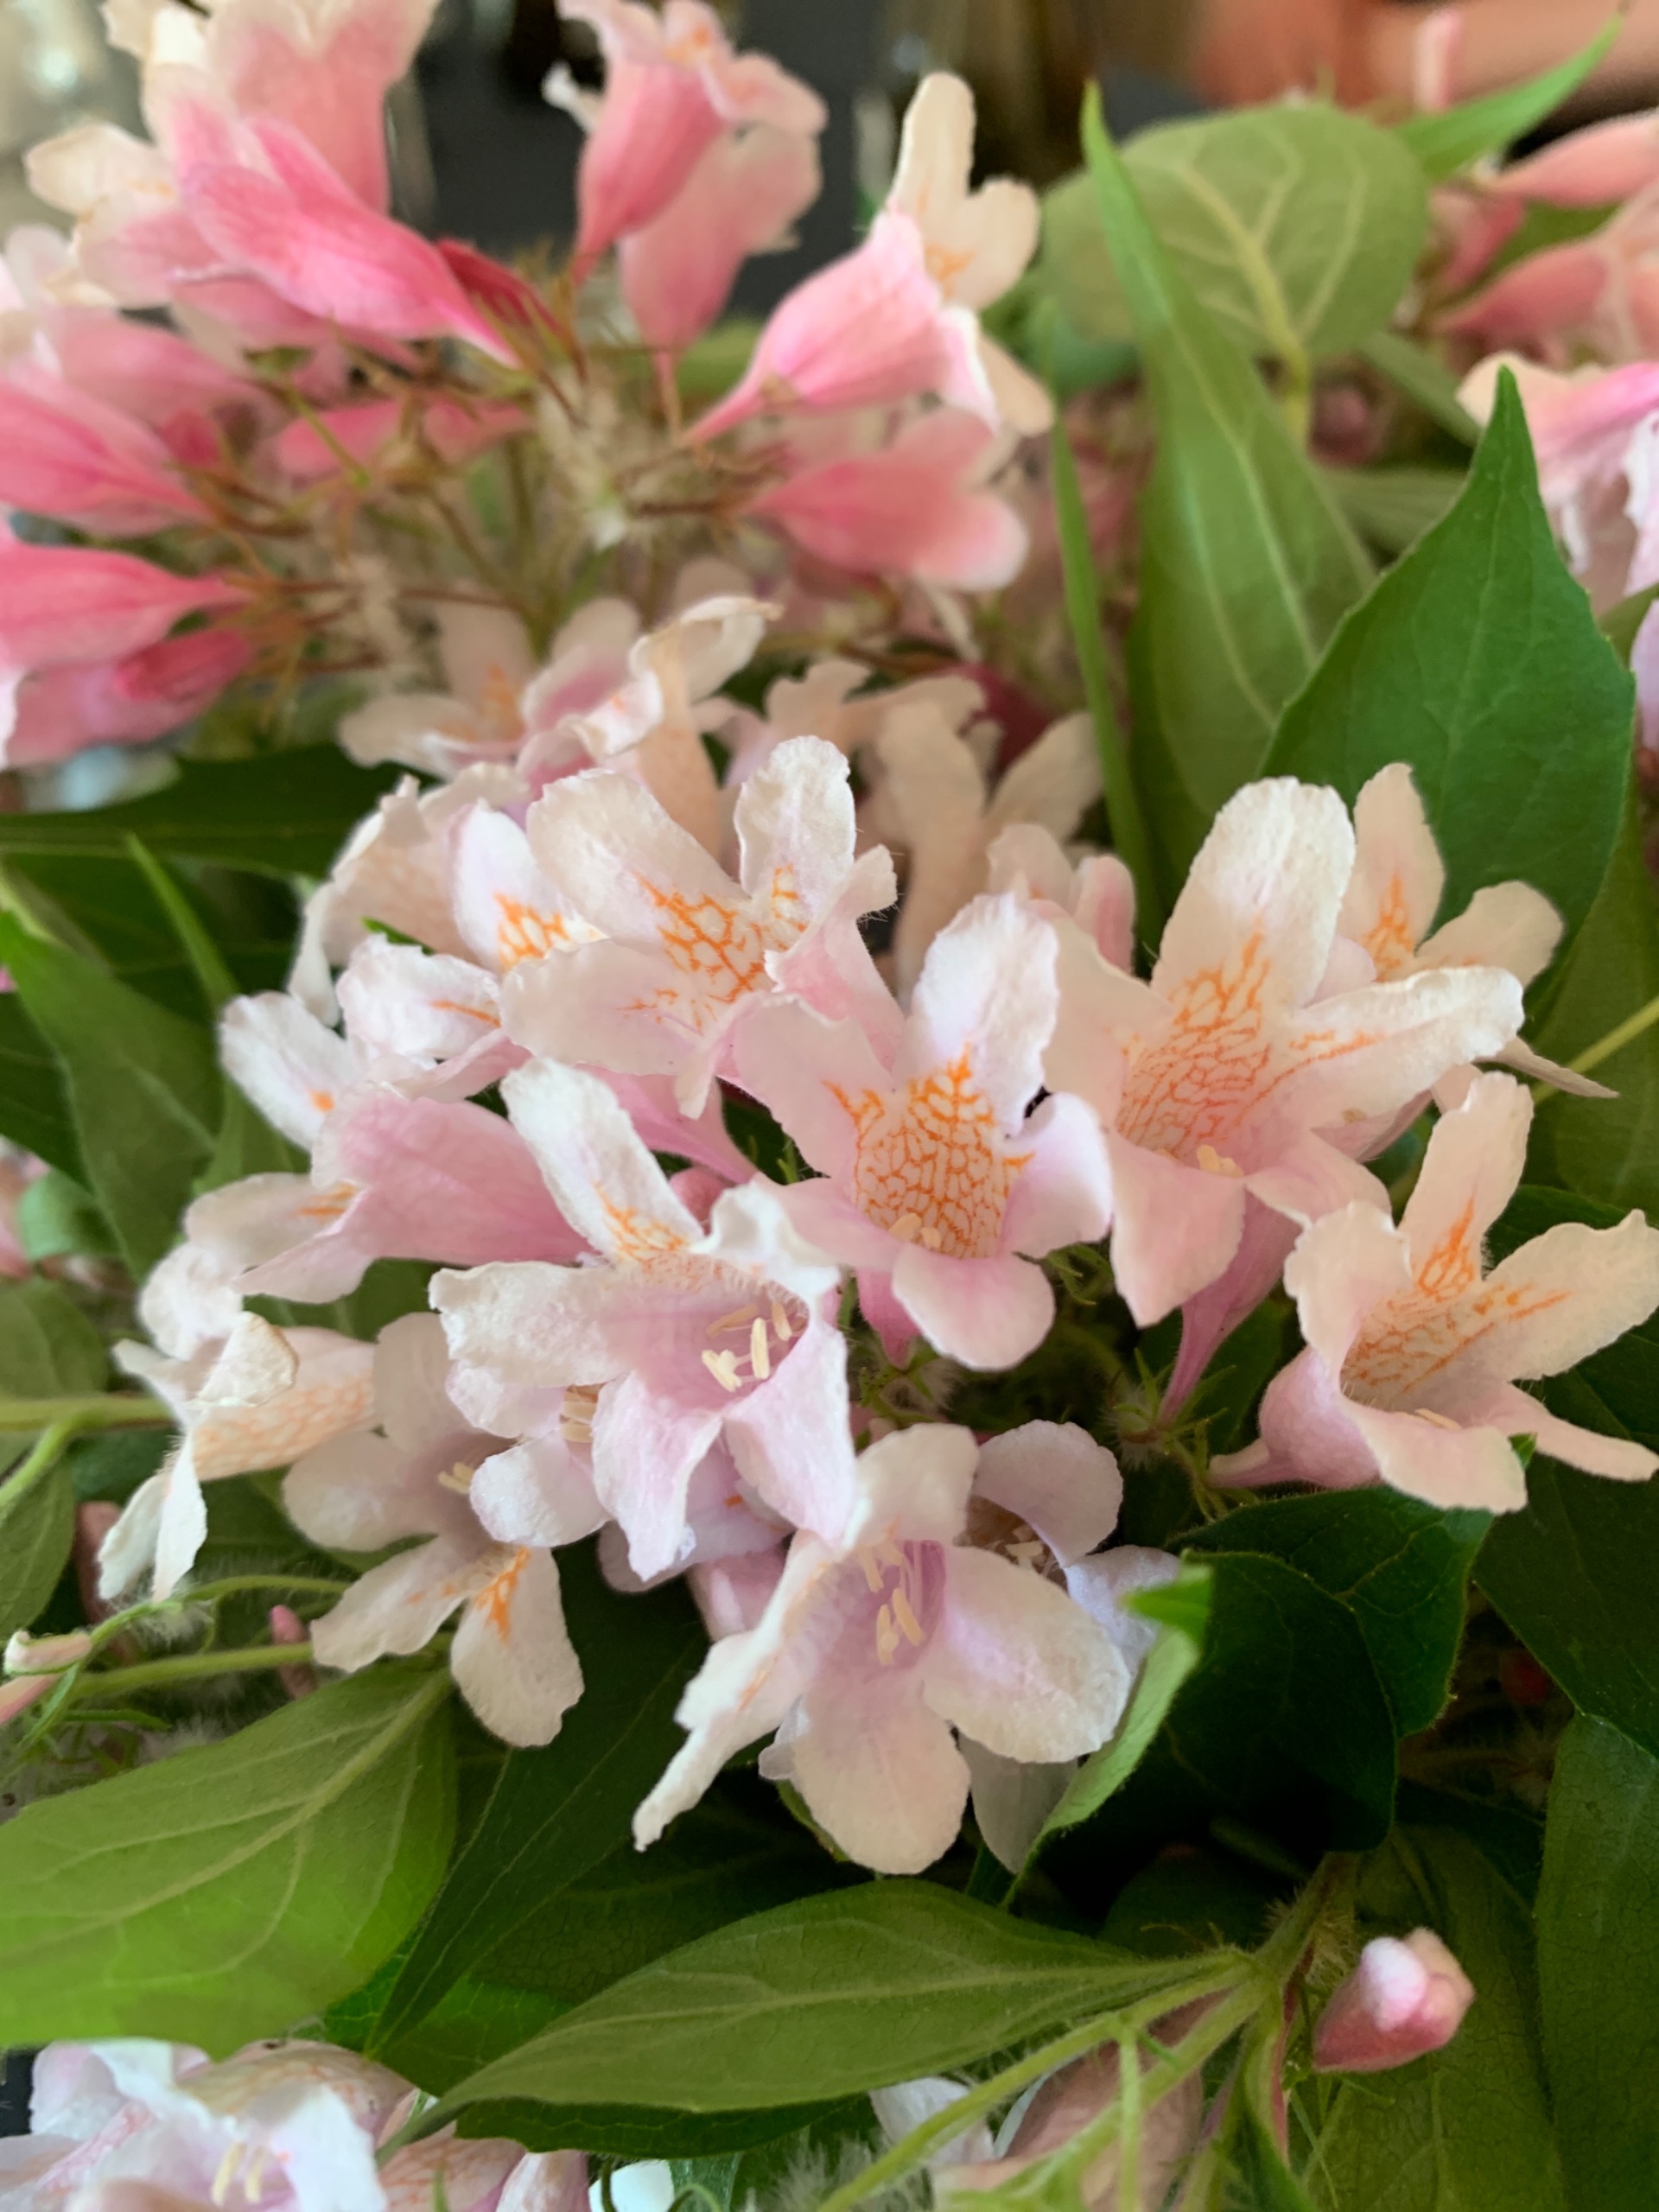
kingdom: Plantae
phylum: Tracheophyta
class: Magnoliopsida
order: Dipsacales
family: Caprifoliaceae
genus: Kolkwitzia
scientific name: Kolkwitzia amabilis
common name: Dronningebusk
